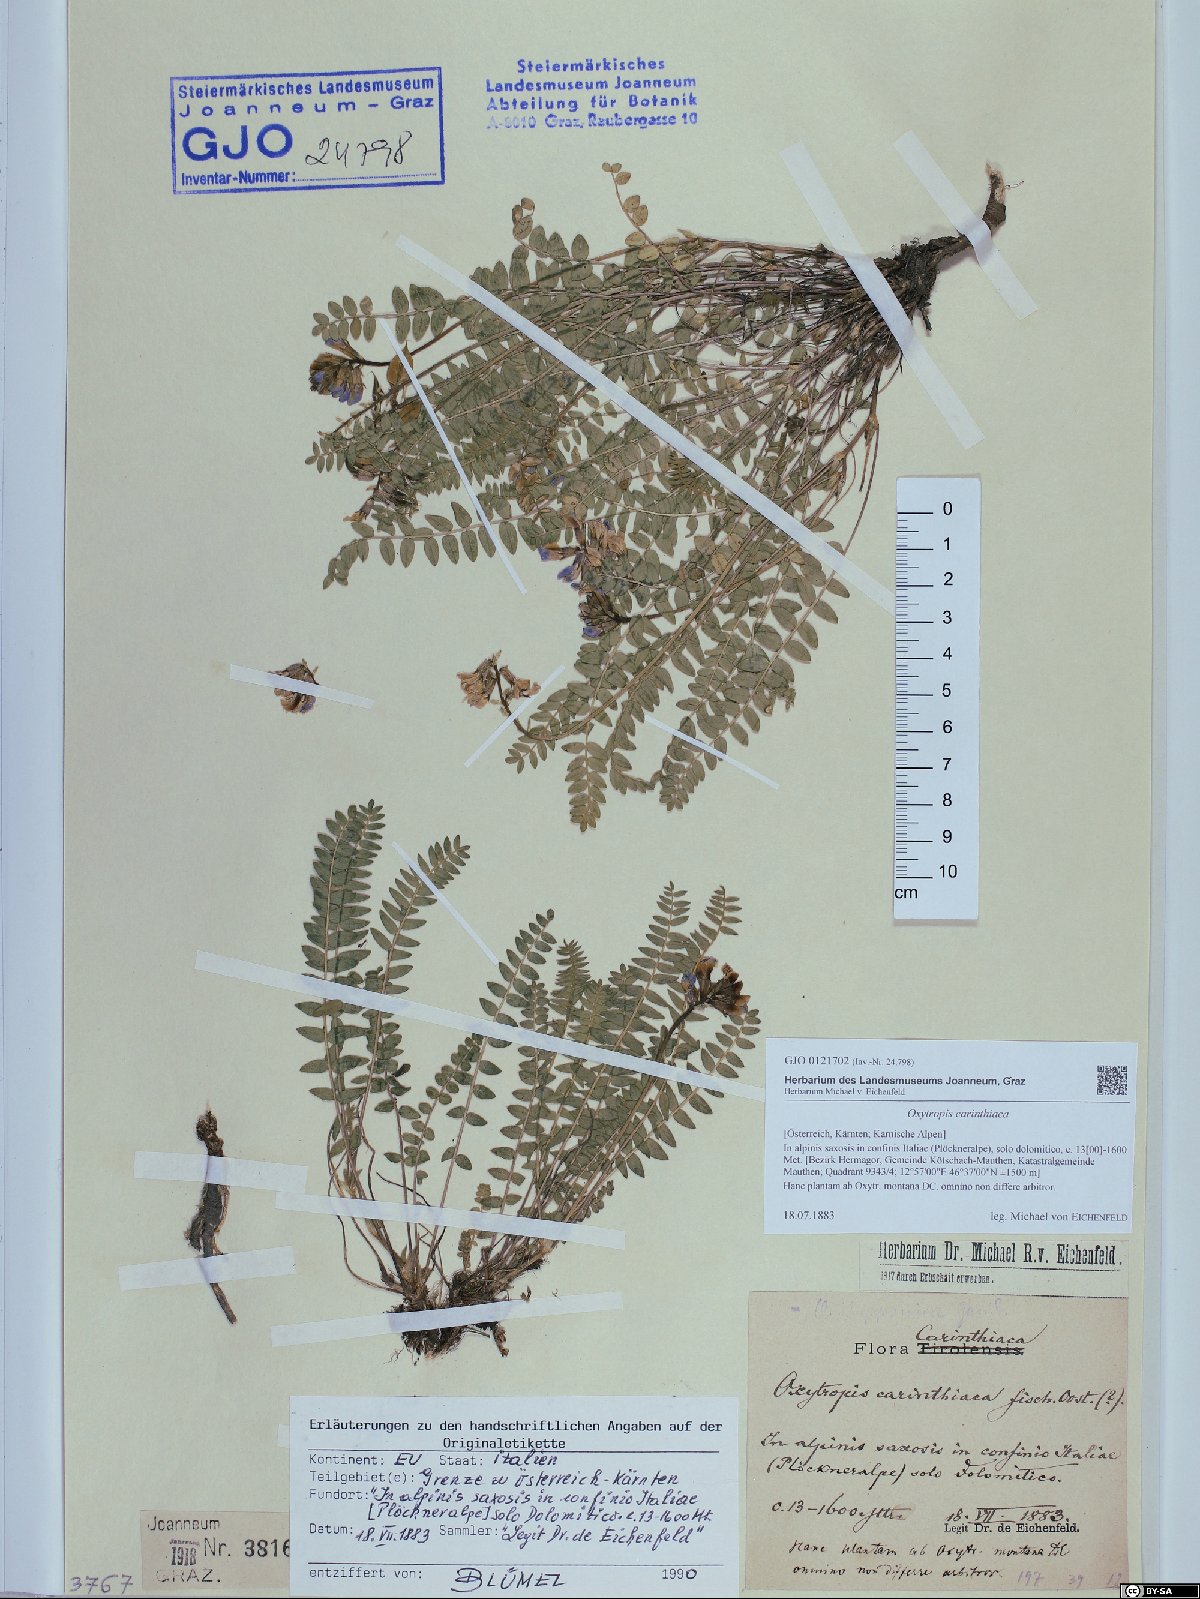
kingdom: Plantae
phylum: Tracheophyta
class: Magnoliopsida
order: Fabales
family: Fabaceae
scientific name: Fabaceae
